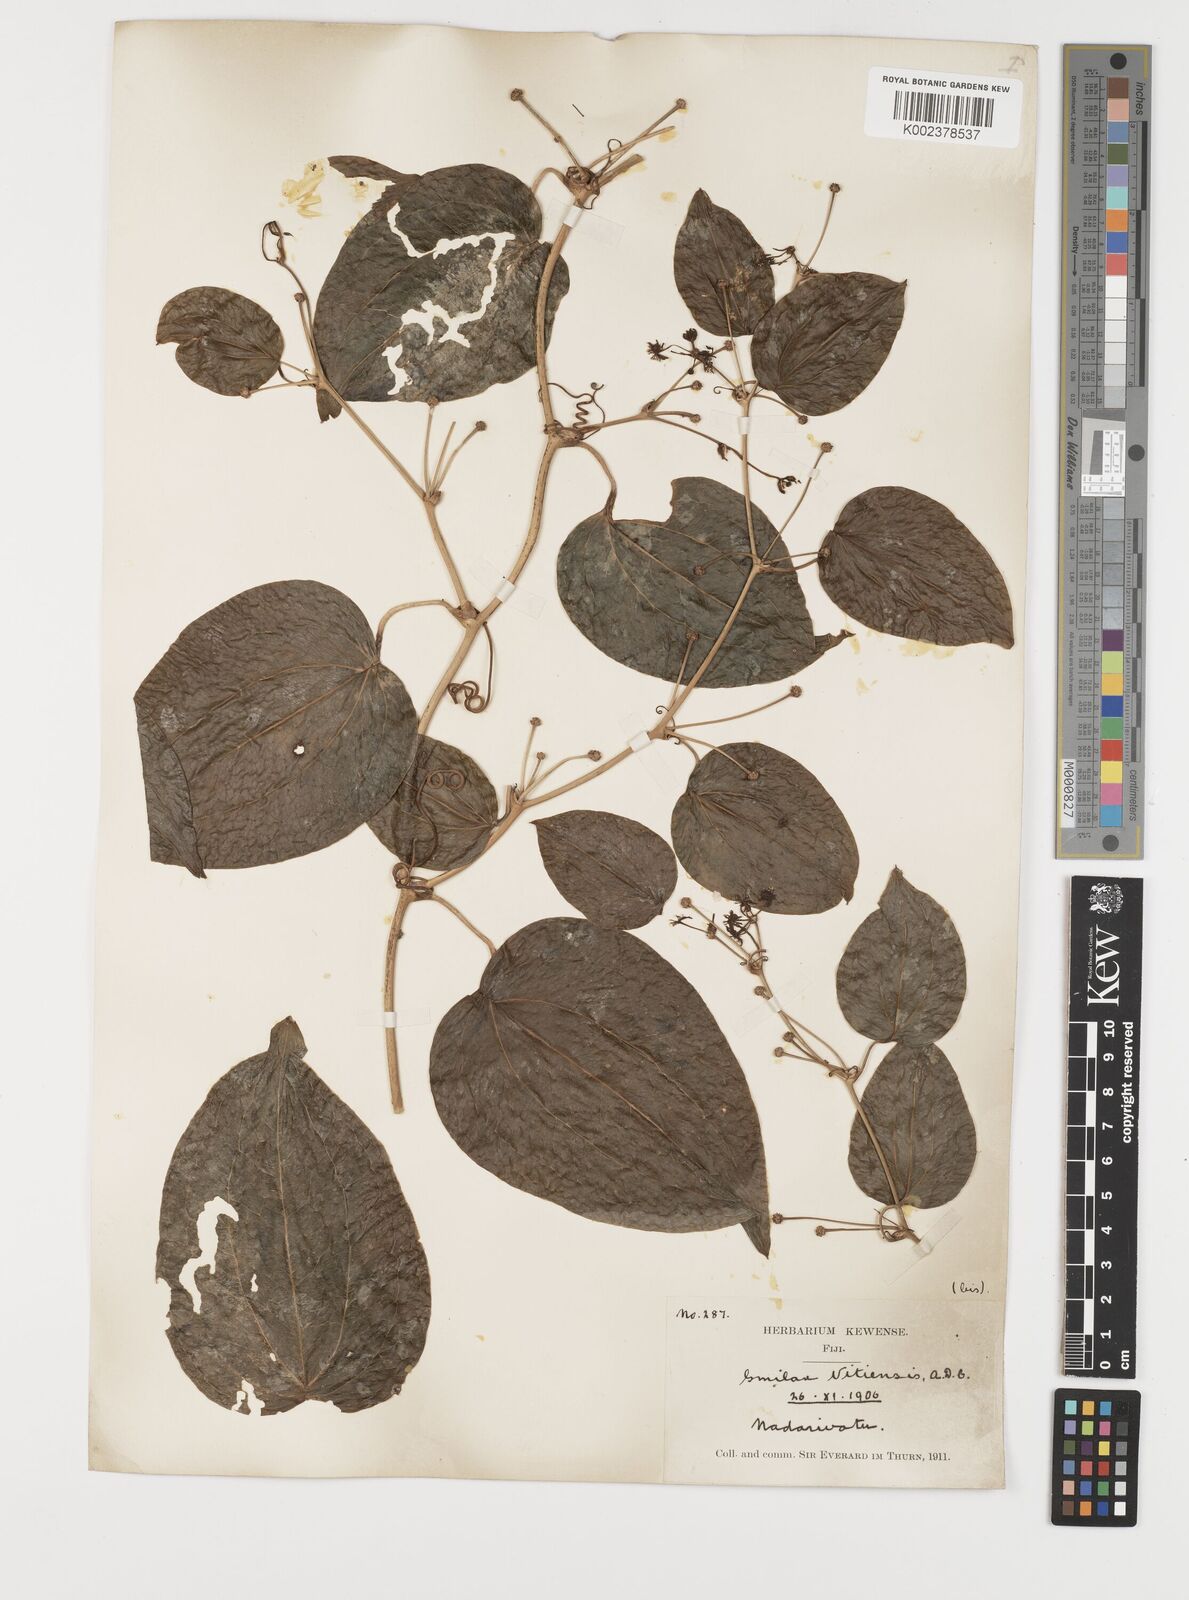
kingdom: Plantae
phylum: Tracheophyta
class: Liliopsida
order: Liliales
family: Smilacaceae
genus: Smilax
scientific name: Smilax vitiensis
